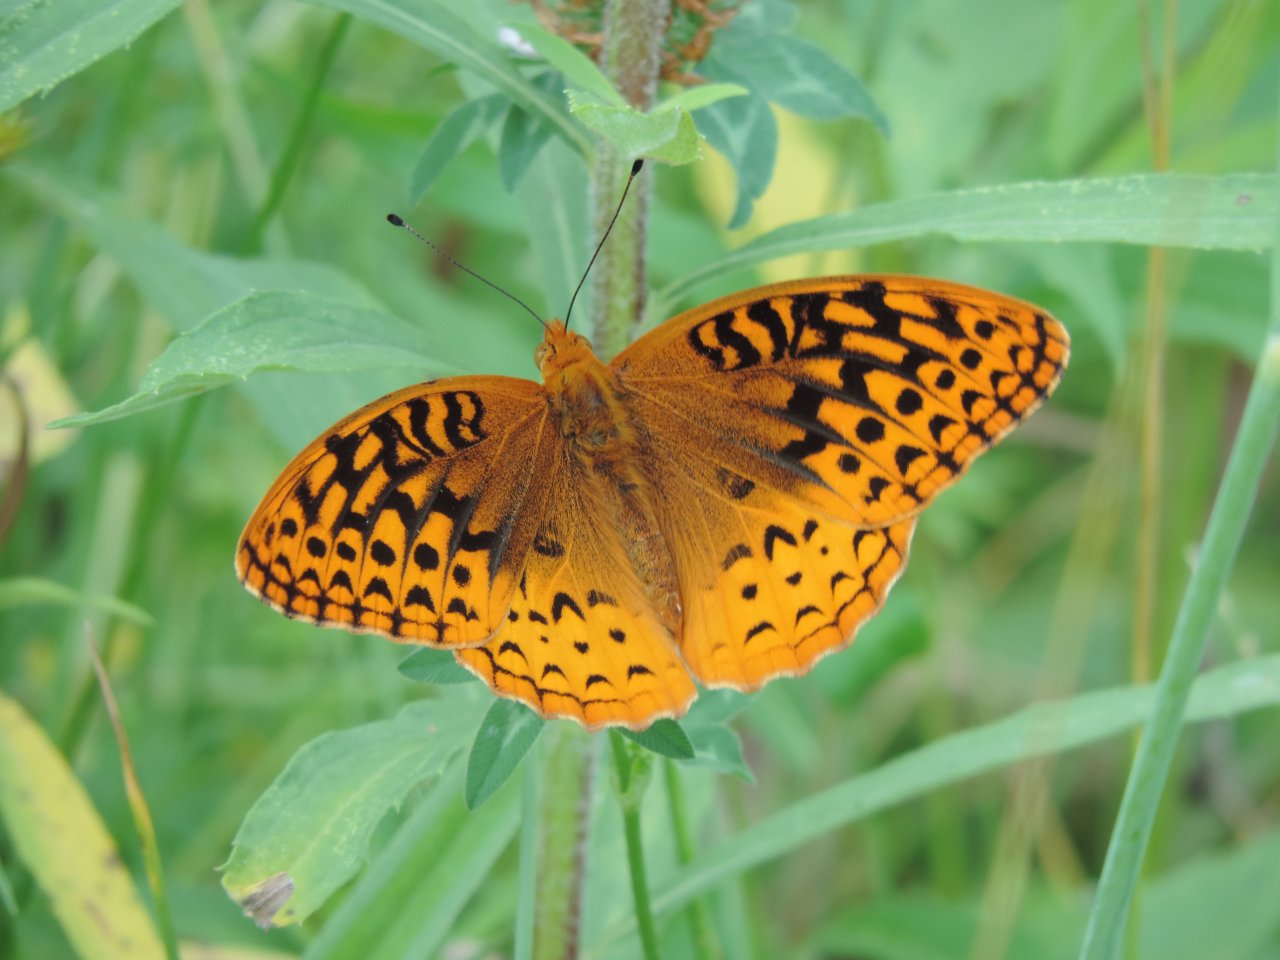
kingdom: Animalia
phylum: Arthropoda
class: Insecta
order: Lepidoptera
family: Nymphalidae
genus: Speyeria
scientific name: Speyeria cybele
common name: Great Spangled Fritillary
